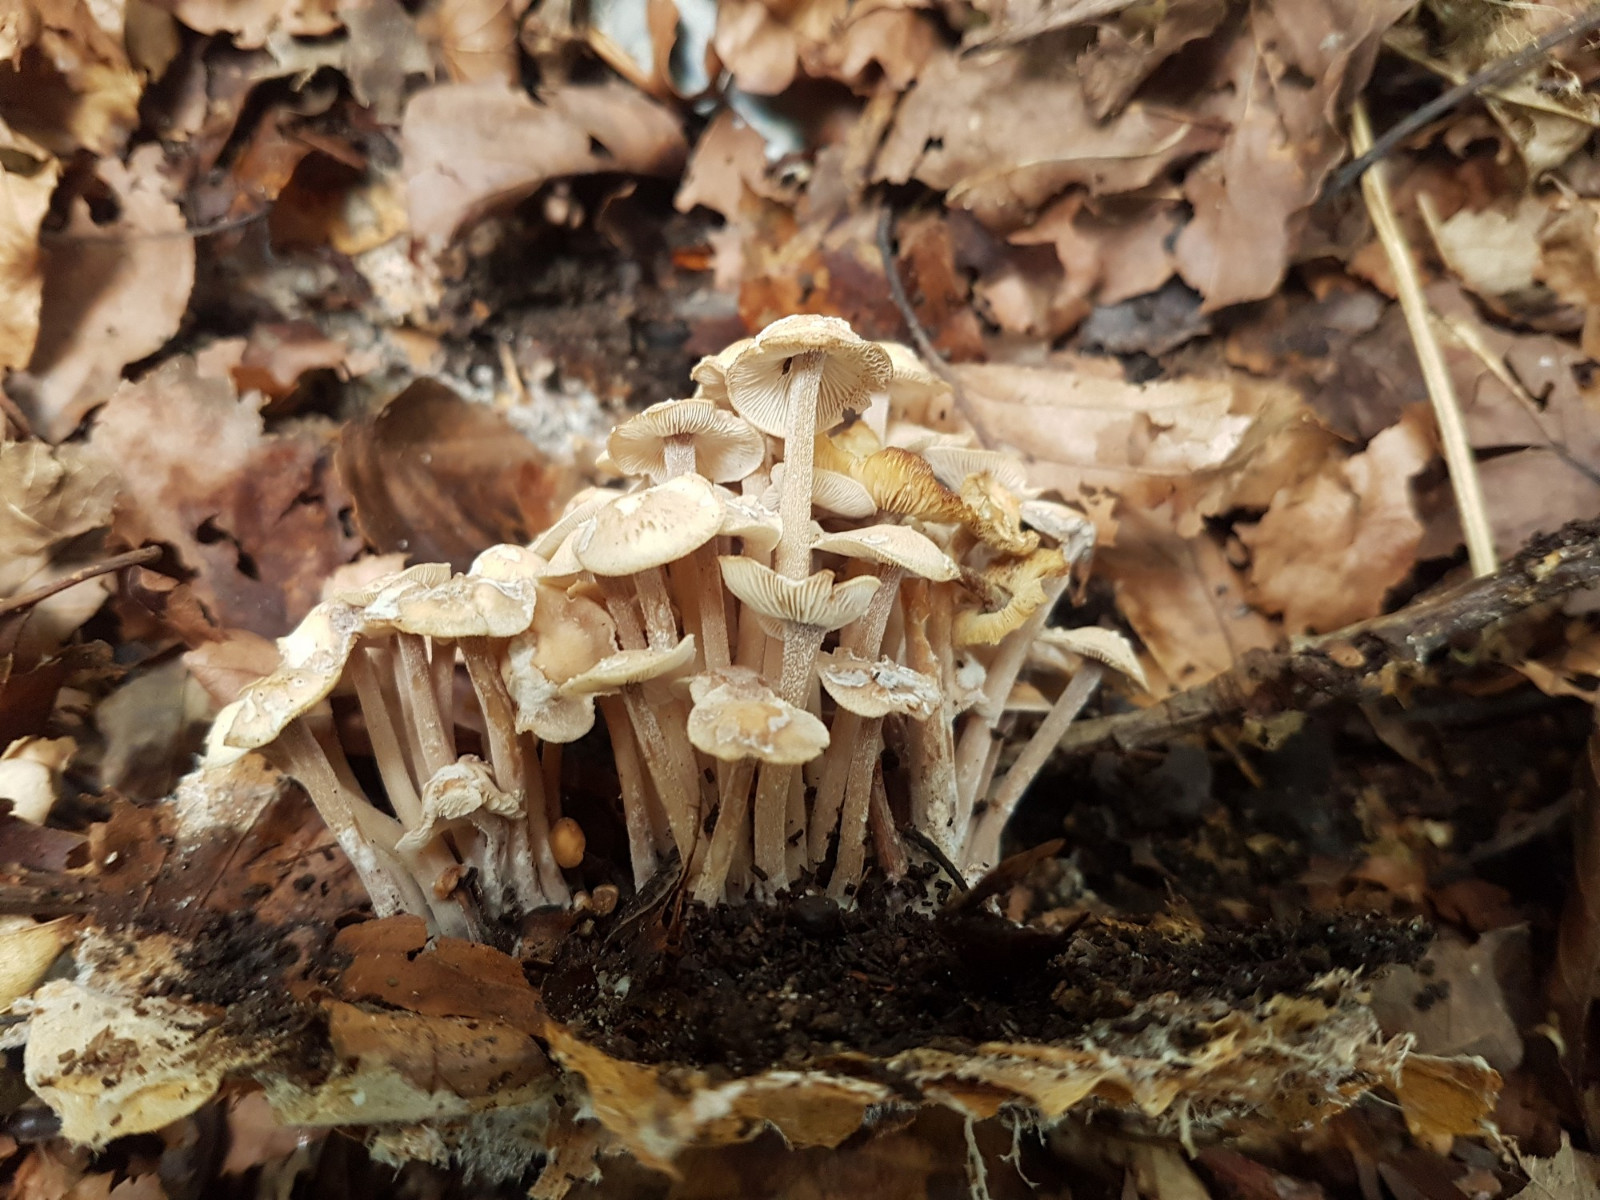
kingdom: Fungi
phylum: Basidiomycota
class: Agaricomycetes
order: Agaricales
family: Omphalotaceae
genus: Collybiopsis
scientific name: Collybiopsis confluens
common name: knippe-fladhat
